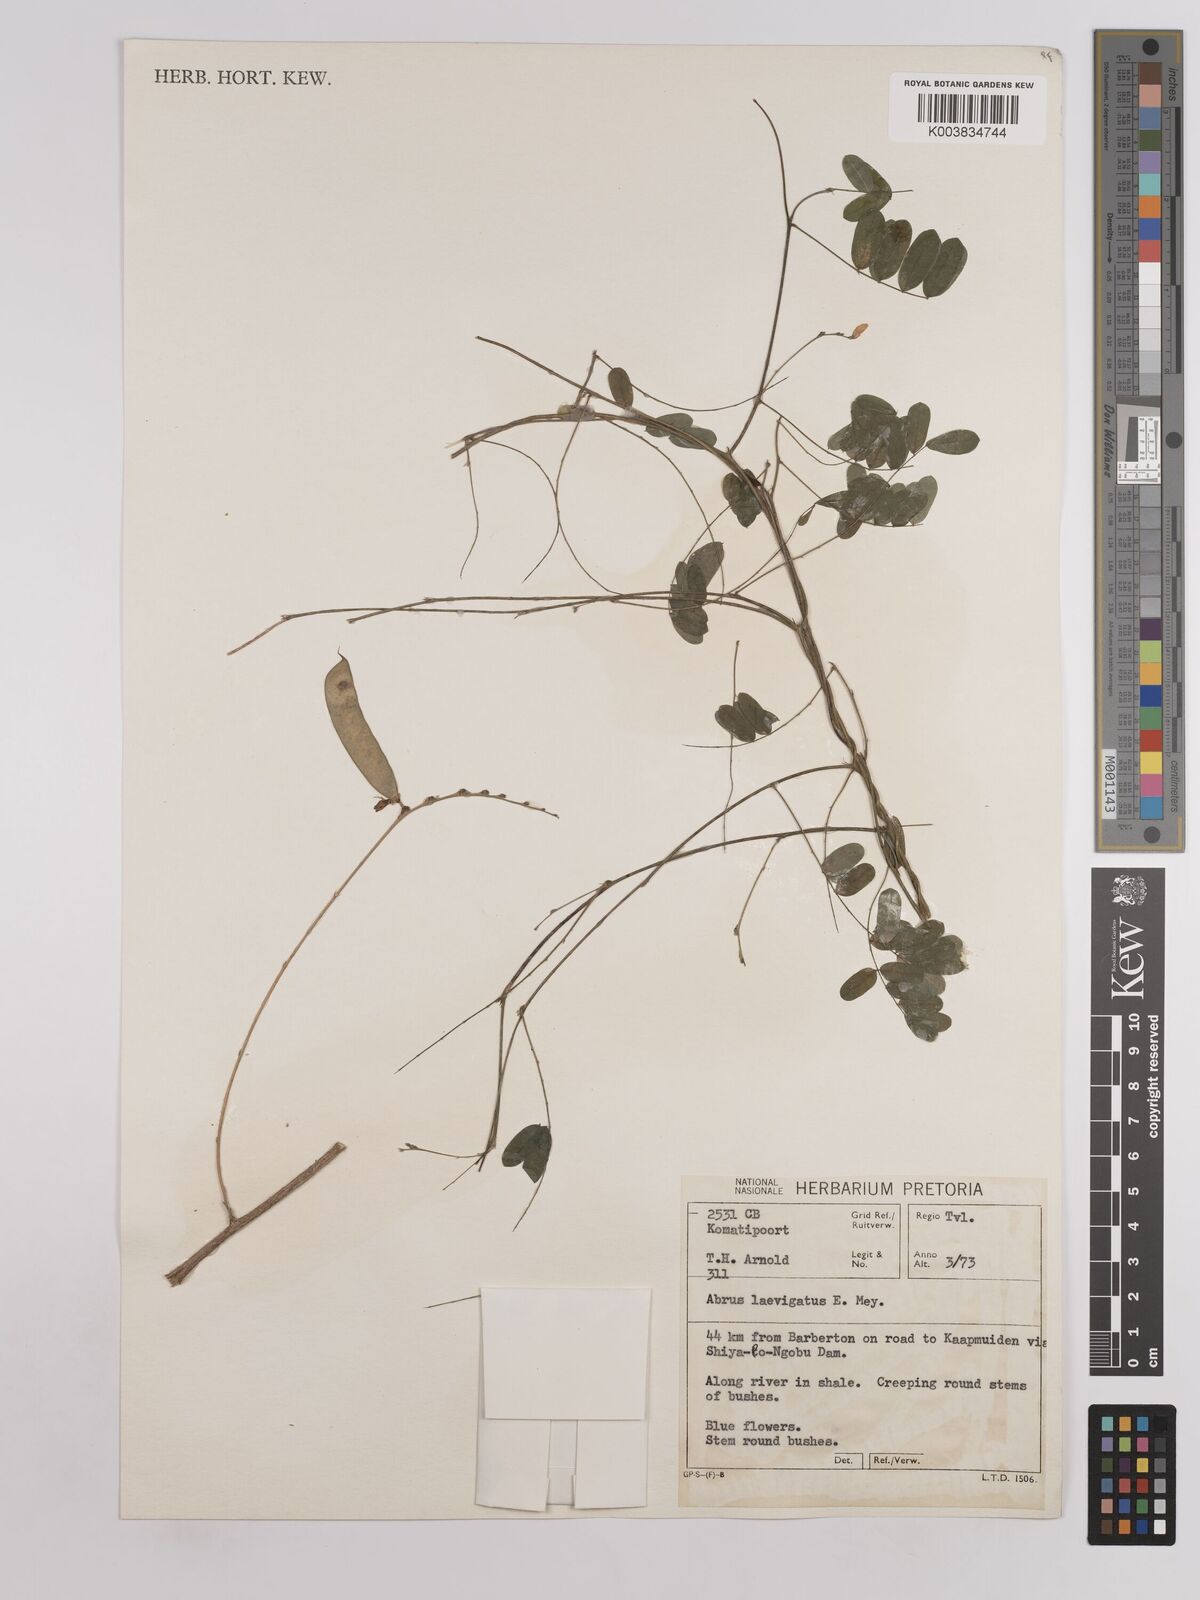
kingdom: Plantae
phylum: Tracheophyta
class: Magnoliopsida
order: Fabales
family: Fabaceae
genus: Abrus
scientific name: Abrus laevigatus
